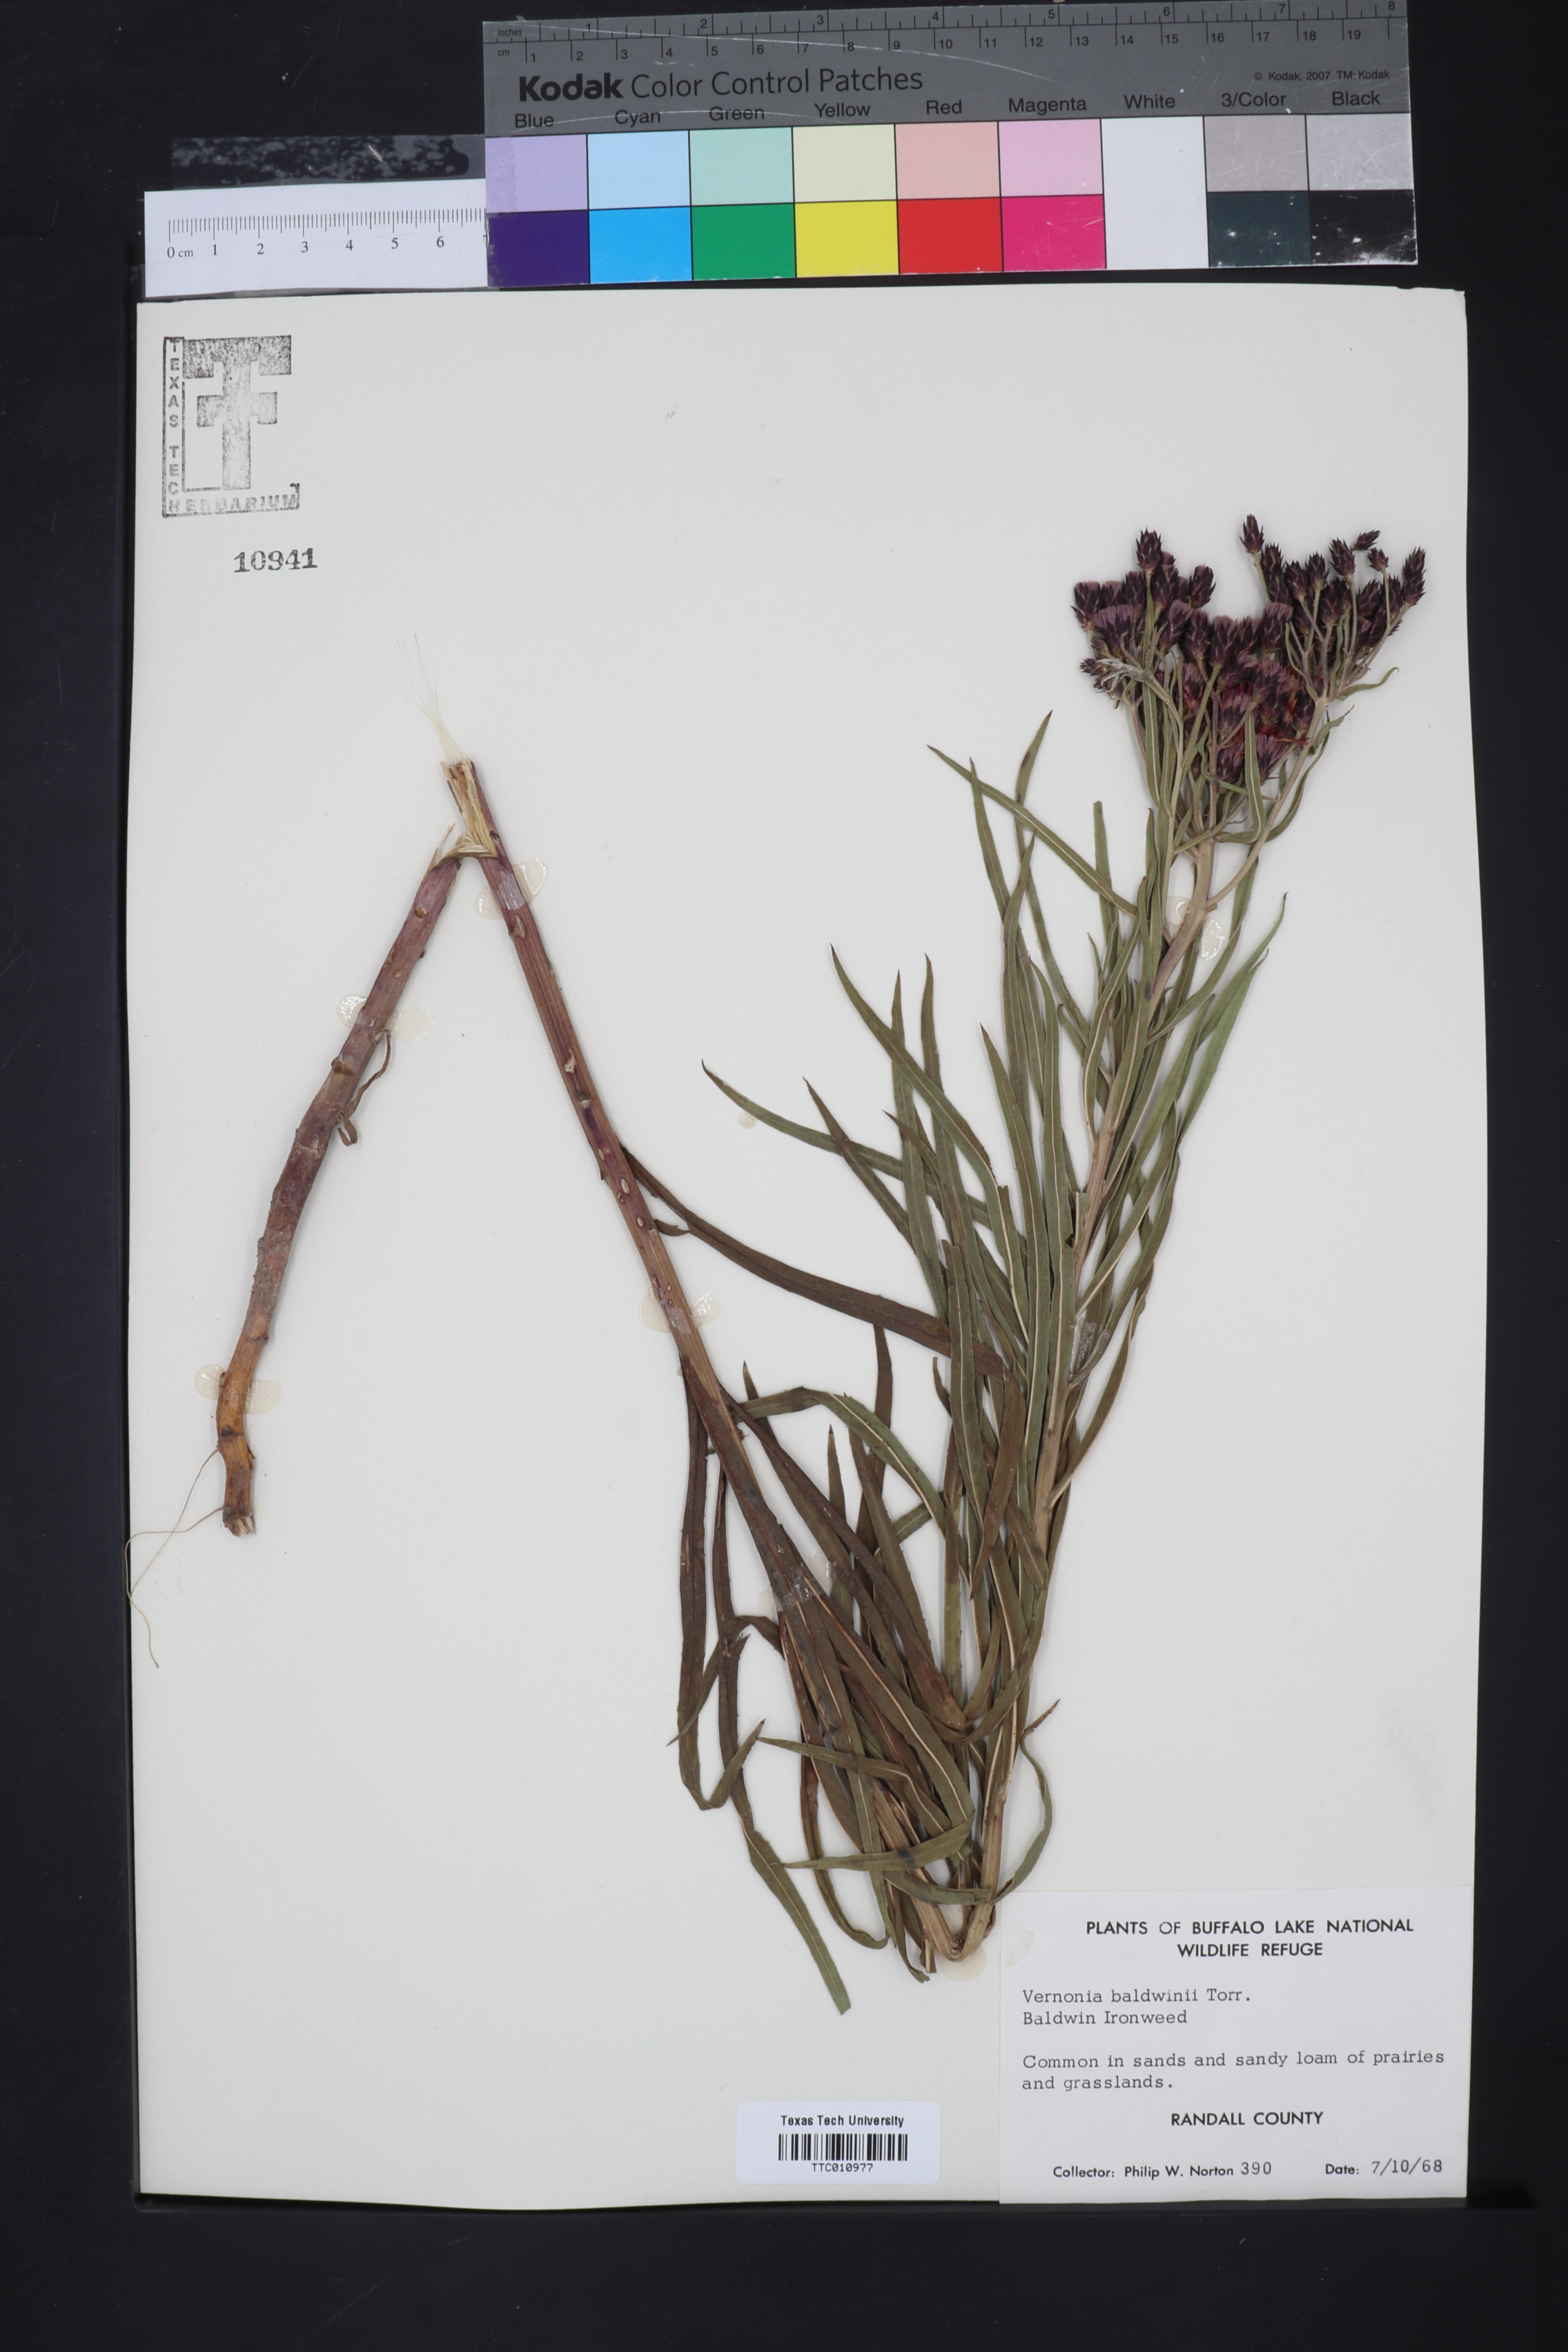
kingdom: Plantae
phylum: Tracheophyta
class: Magnoliopsida
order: Asterales
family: Asteraceae
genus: Vernonia
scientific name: Vernonia baldwinii
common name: Western ironweed
